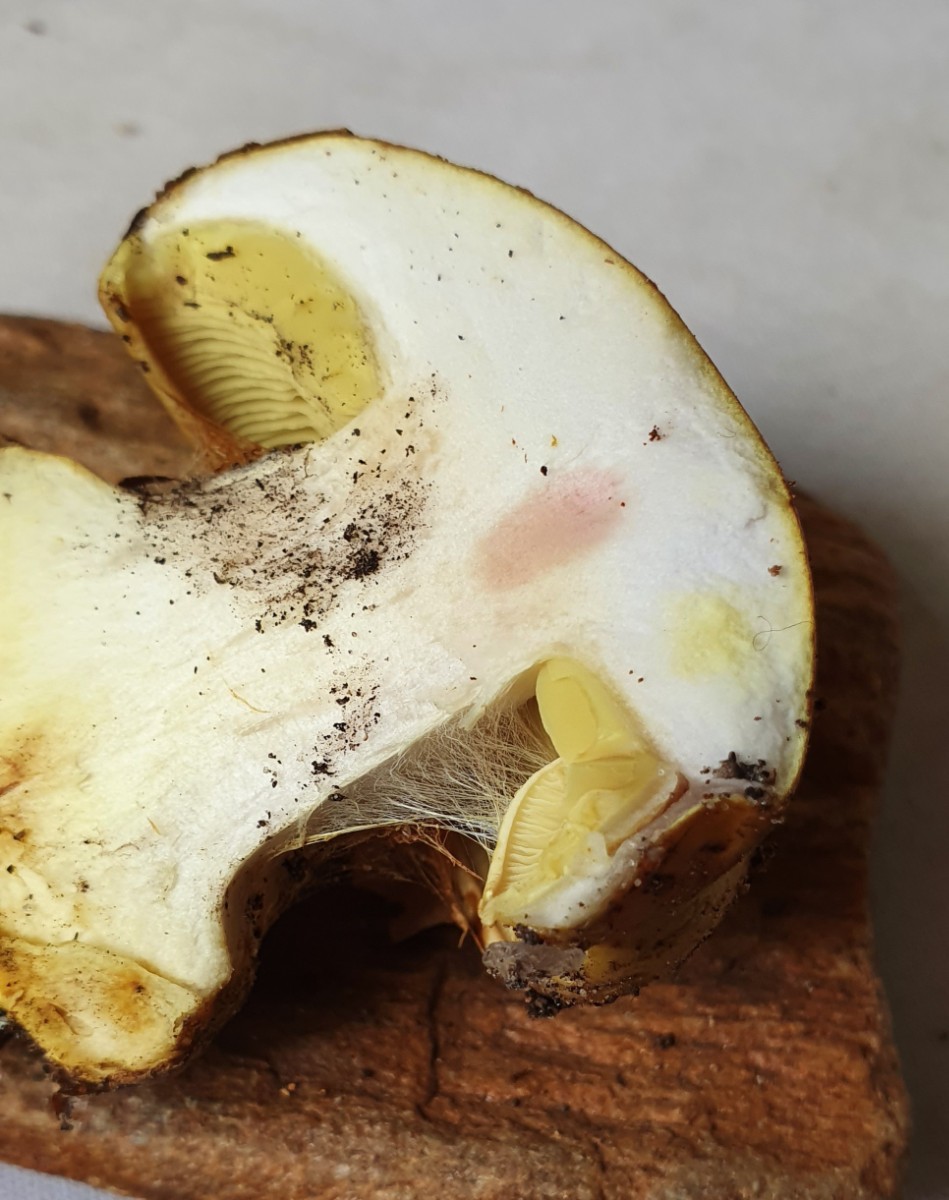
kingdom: Fungi
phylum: Basidiomycota
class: Agaricomycetes
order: Agaricales
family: Cortinariaceae
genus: Calonarius
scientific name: Calonarius elegantissimus
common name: orangegylden slørhat
